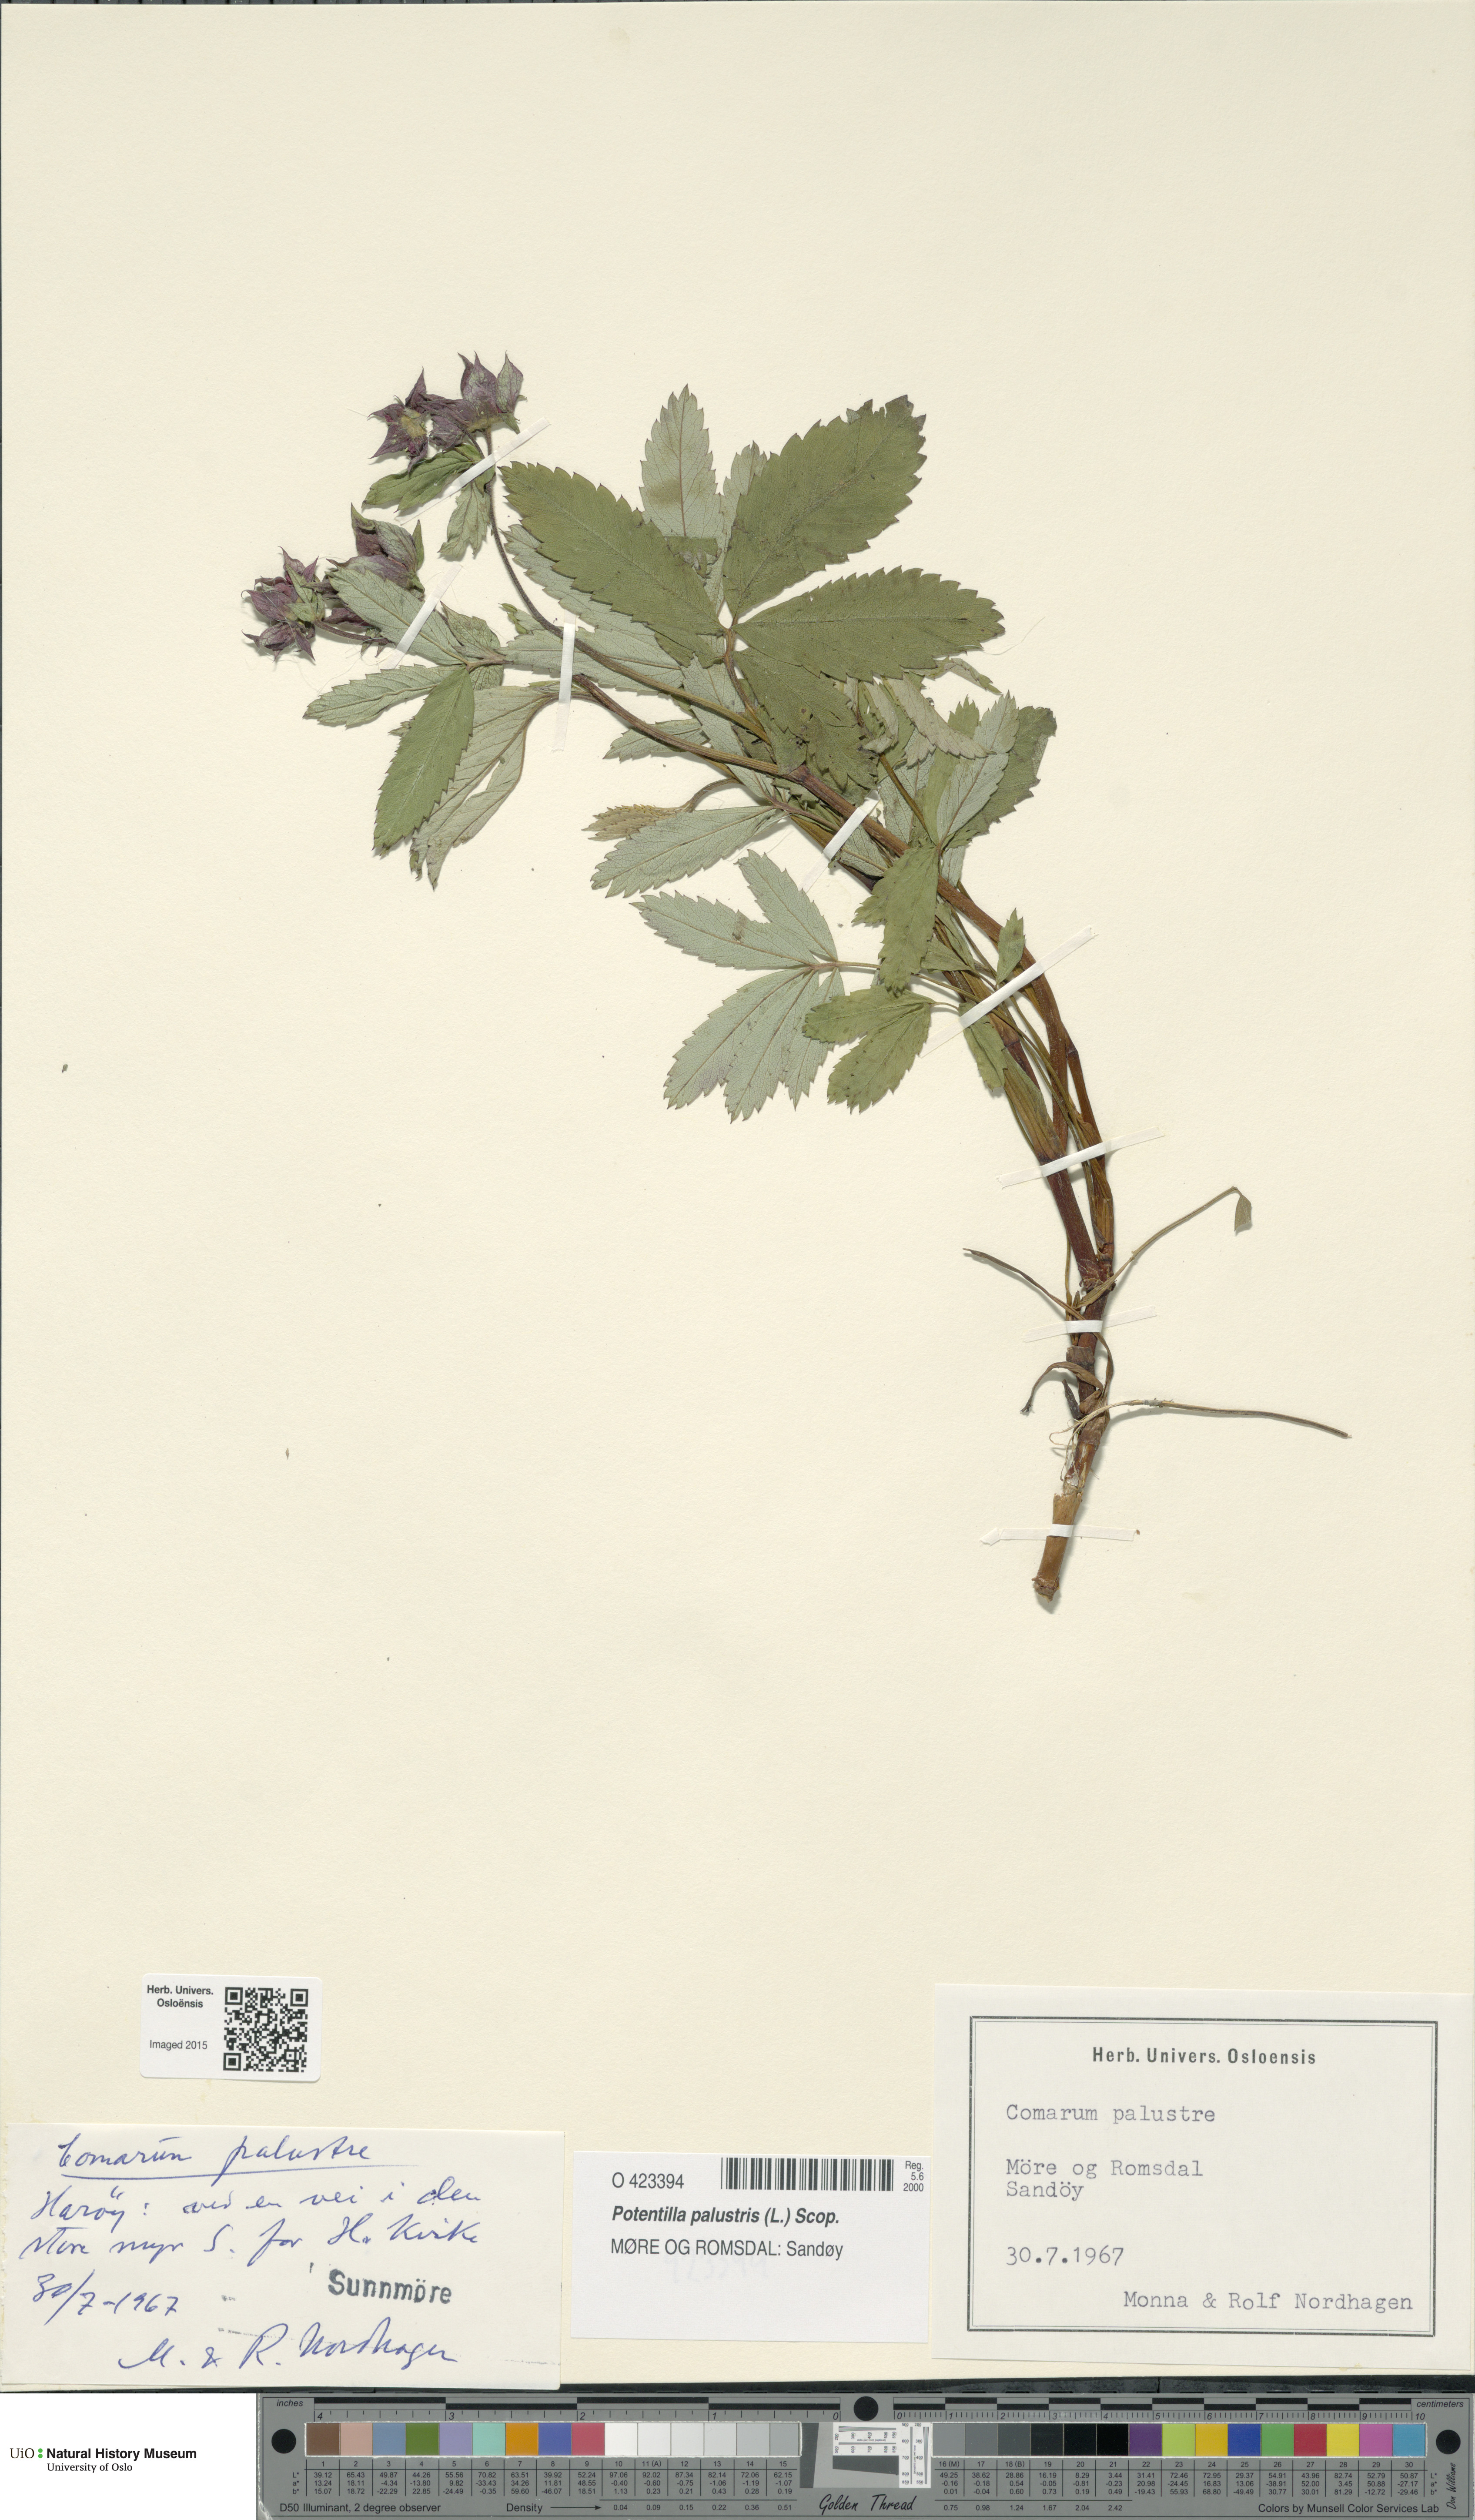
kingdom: Plantae
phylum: Tracheophyta
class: Magnoliopsida
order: Rosales
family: Rosaceae
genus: Comarum
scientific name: Comarum palustre
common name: Marsh cinquefoil
